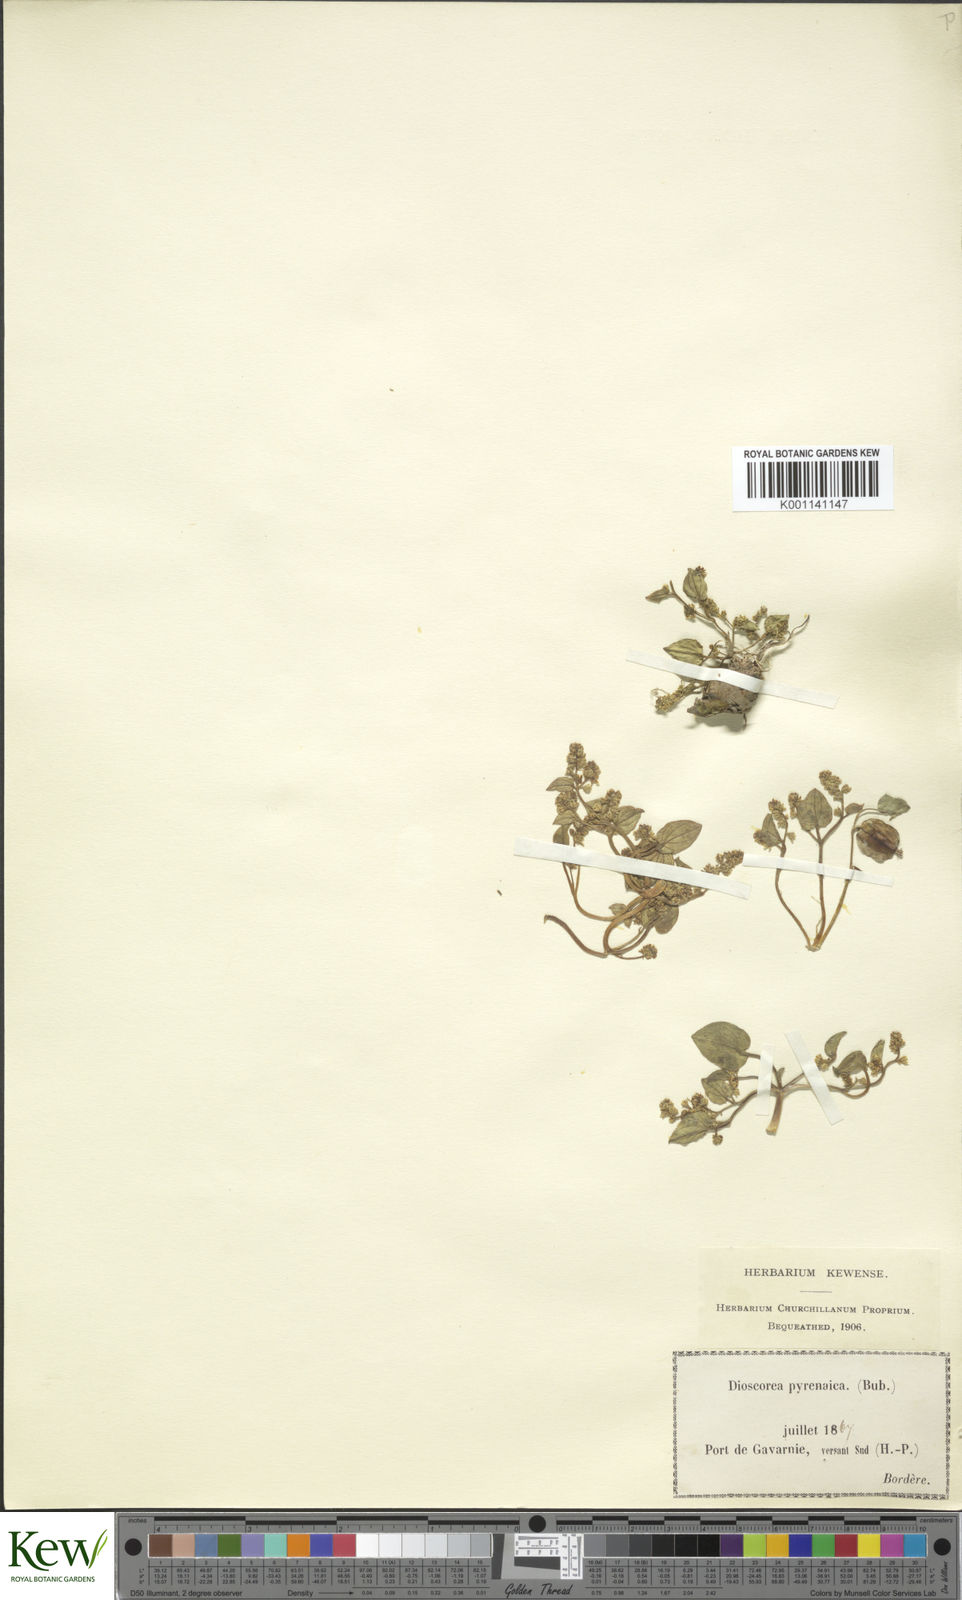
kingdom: Plantae
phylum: Tracheophyta
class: Liliopsida
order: Dioscoreales
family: Dioscoreaceae
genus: Dioscorea
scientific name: Dioscorea
